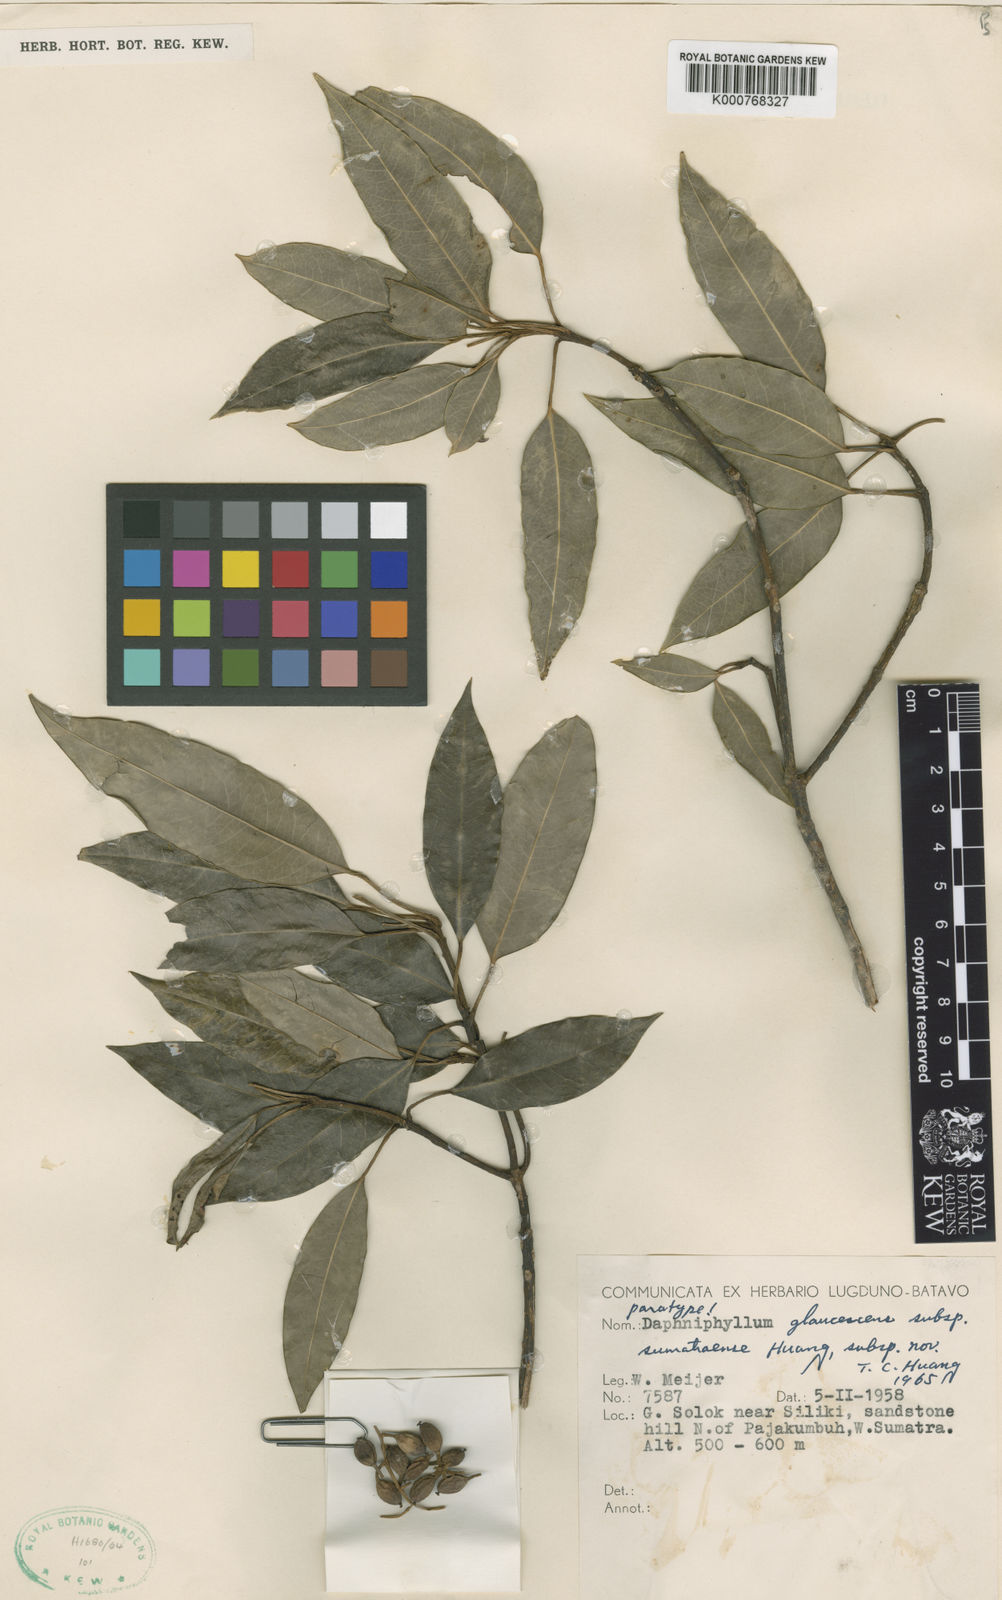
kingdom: Plantae
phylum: Tracheophyta
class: Magnoliopsida
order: Saxifragales
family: Daphniphyllaceae
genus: Daphniphyllum
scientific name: Daphniphyllum sumatraense
